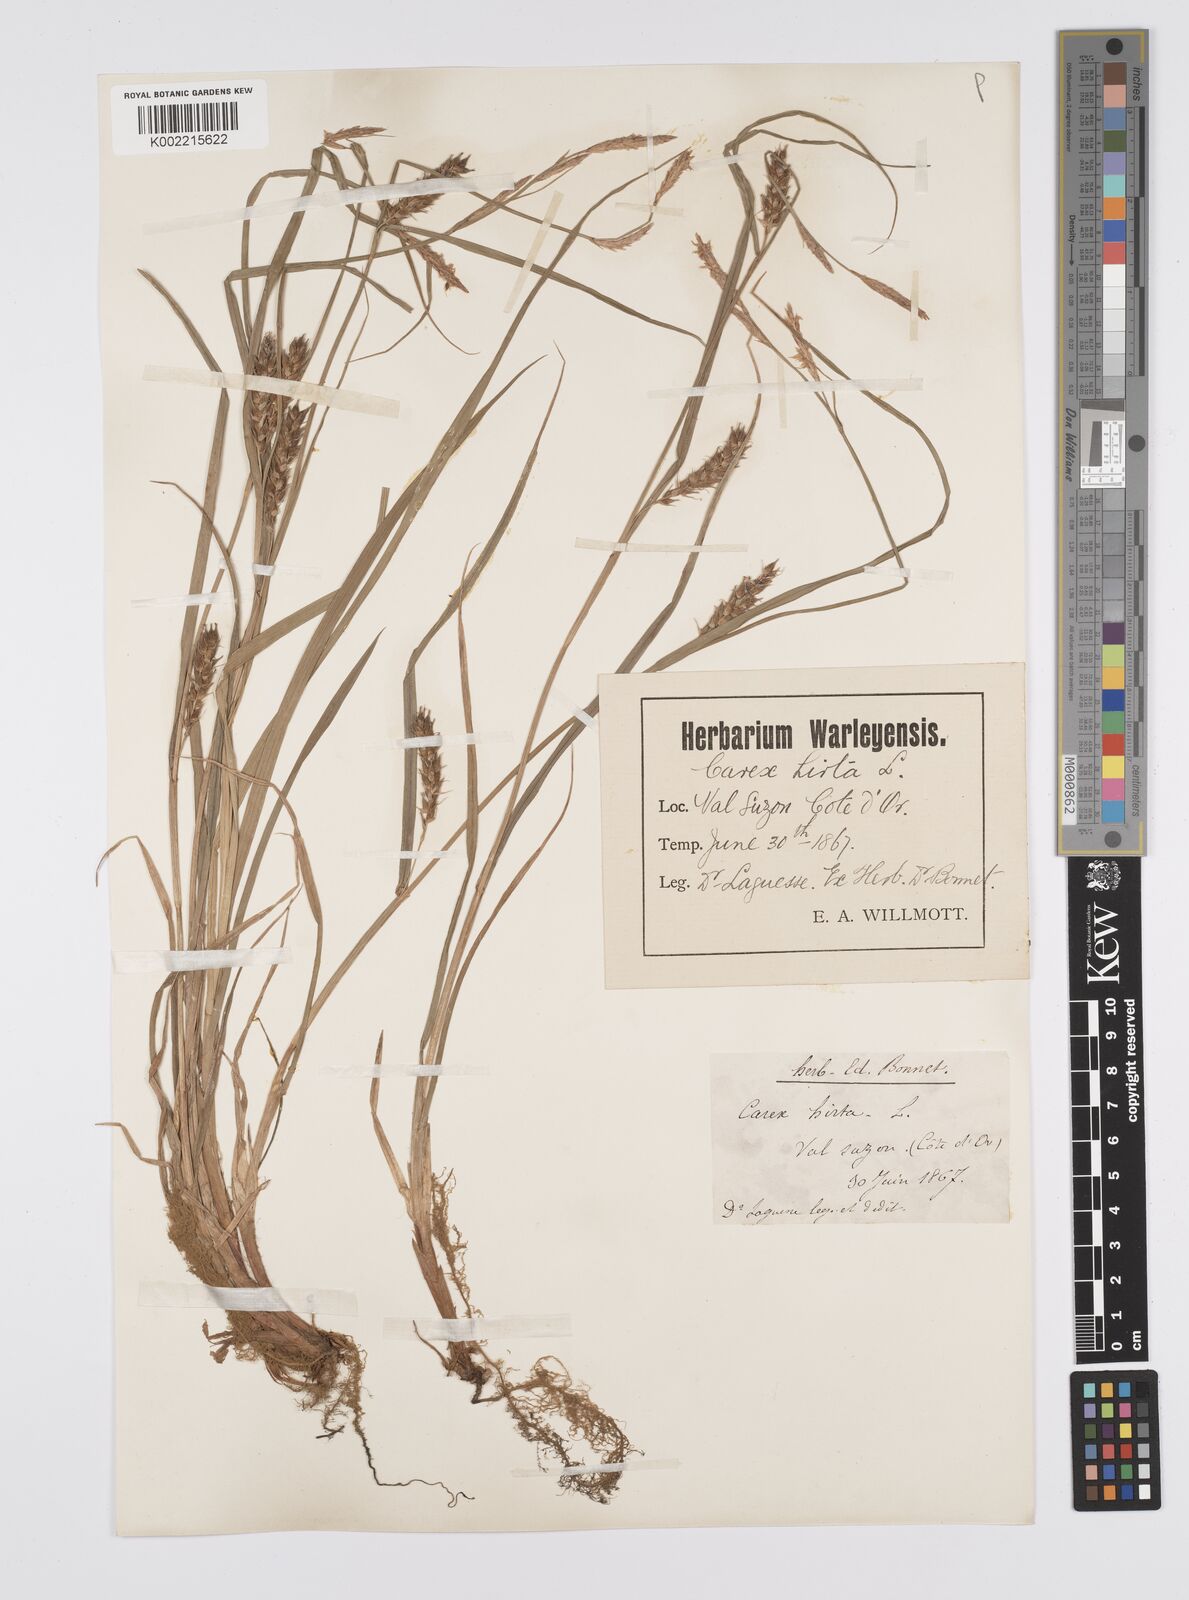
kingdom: Plantae
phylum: Tracheophyta
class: Liliopsida
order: Poales
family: Cyperaceae
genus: Carex
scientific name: Carex hirta
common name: Hairy sedge
